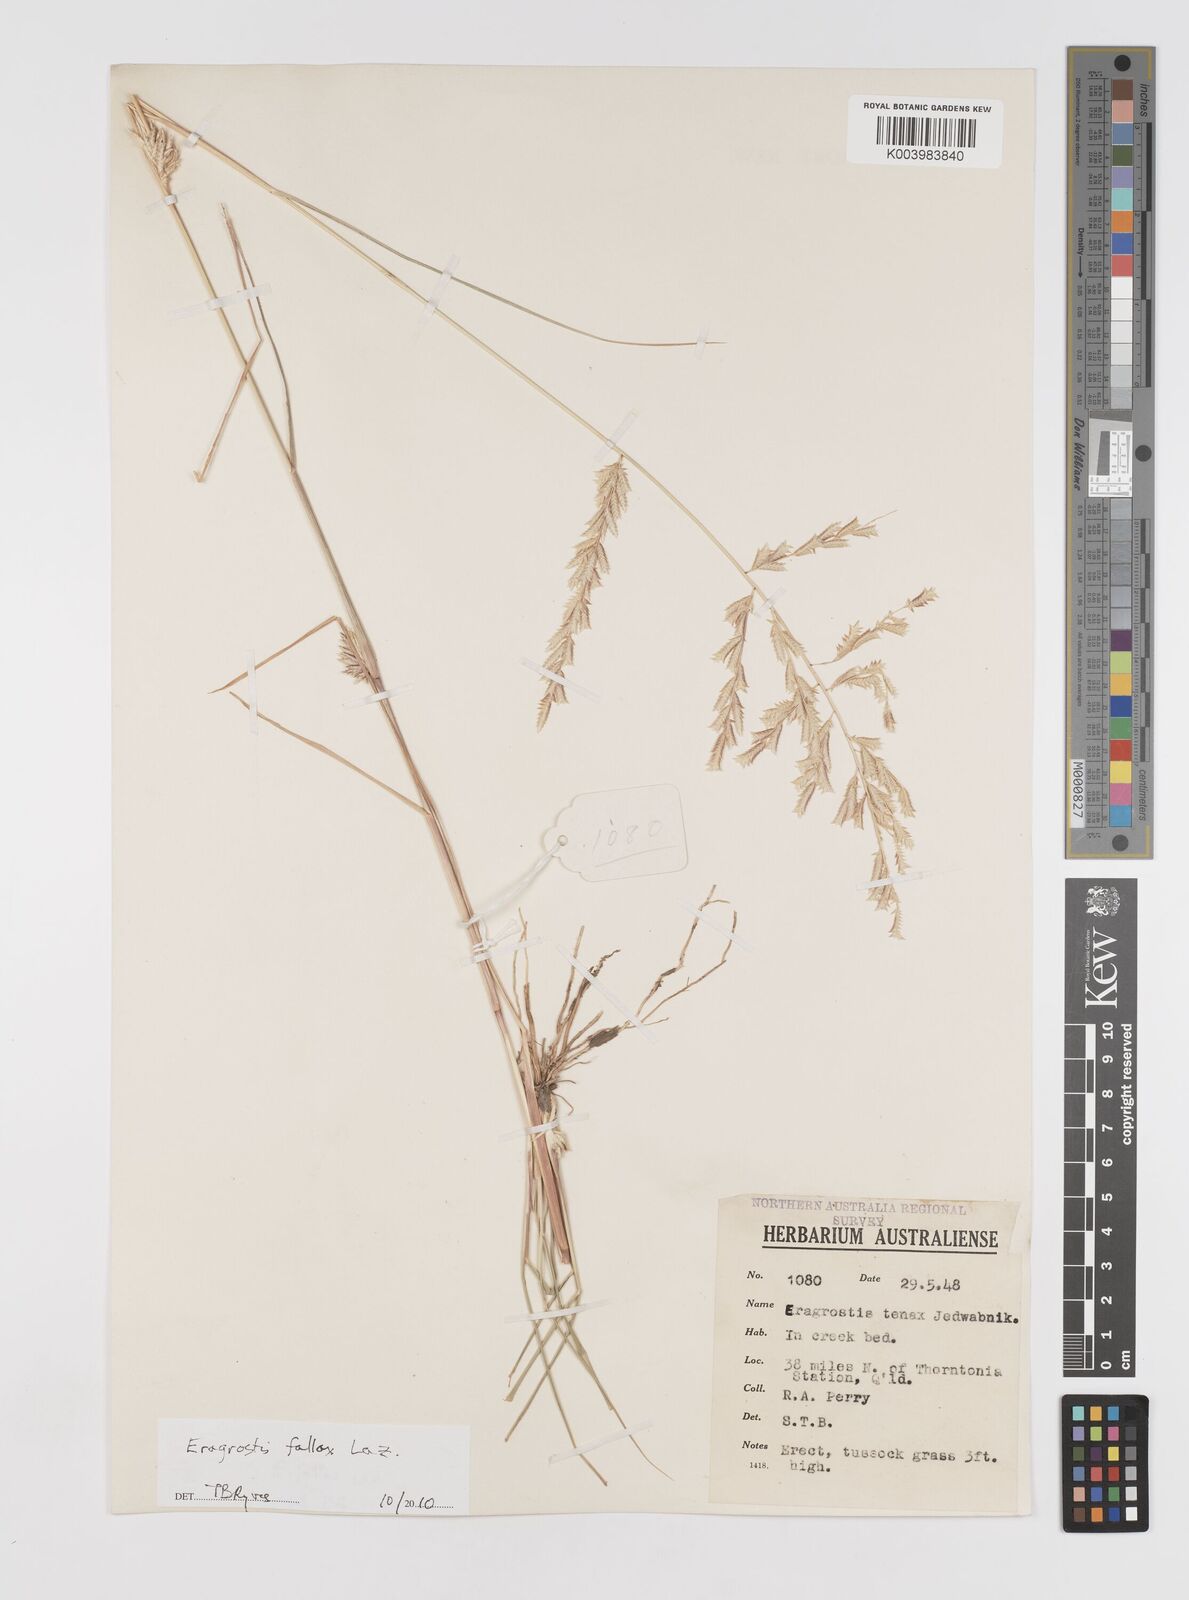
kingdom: Plantae
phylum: Tracheophyta
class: Liliopsida
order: Poales
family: Poaceae
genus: Eragrostis
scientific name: Eragrostis fallax
